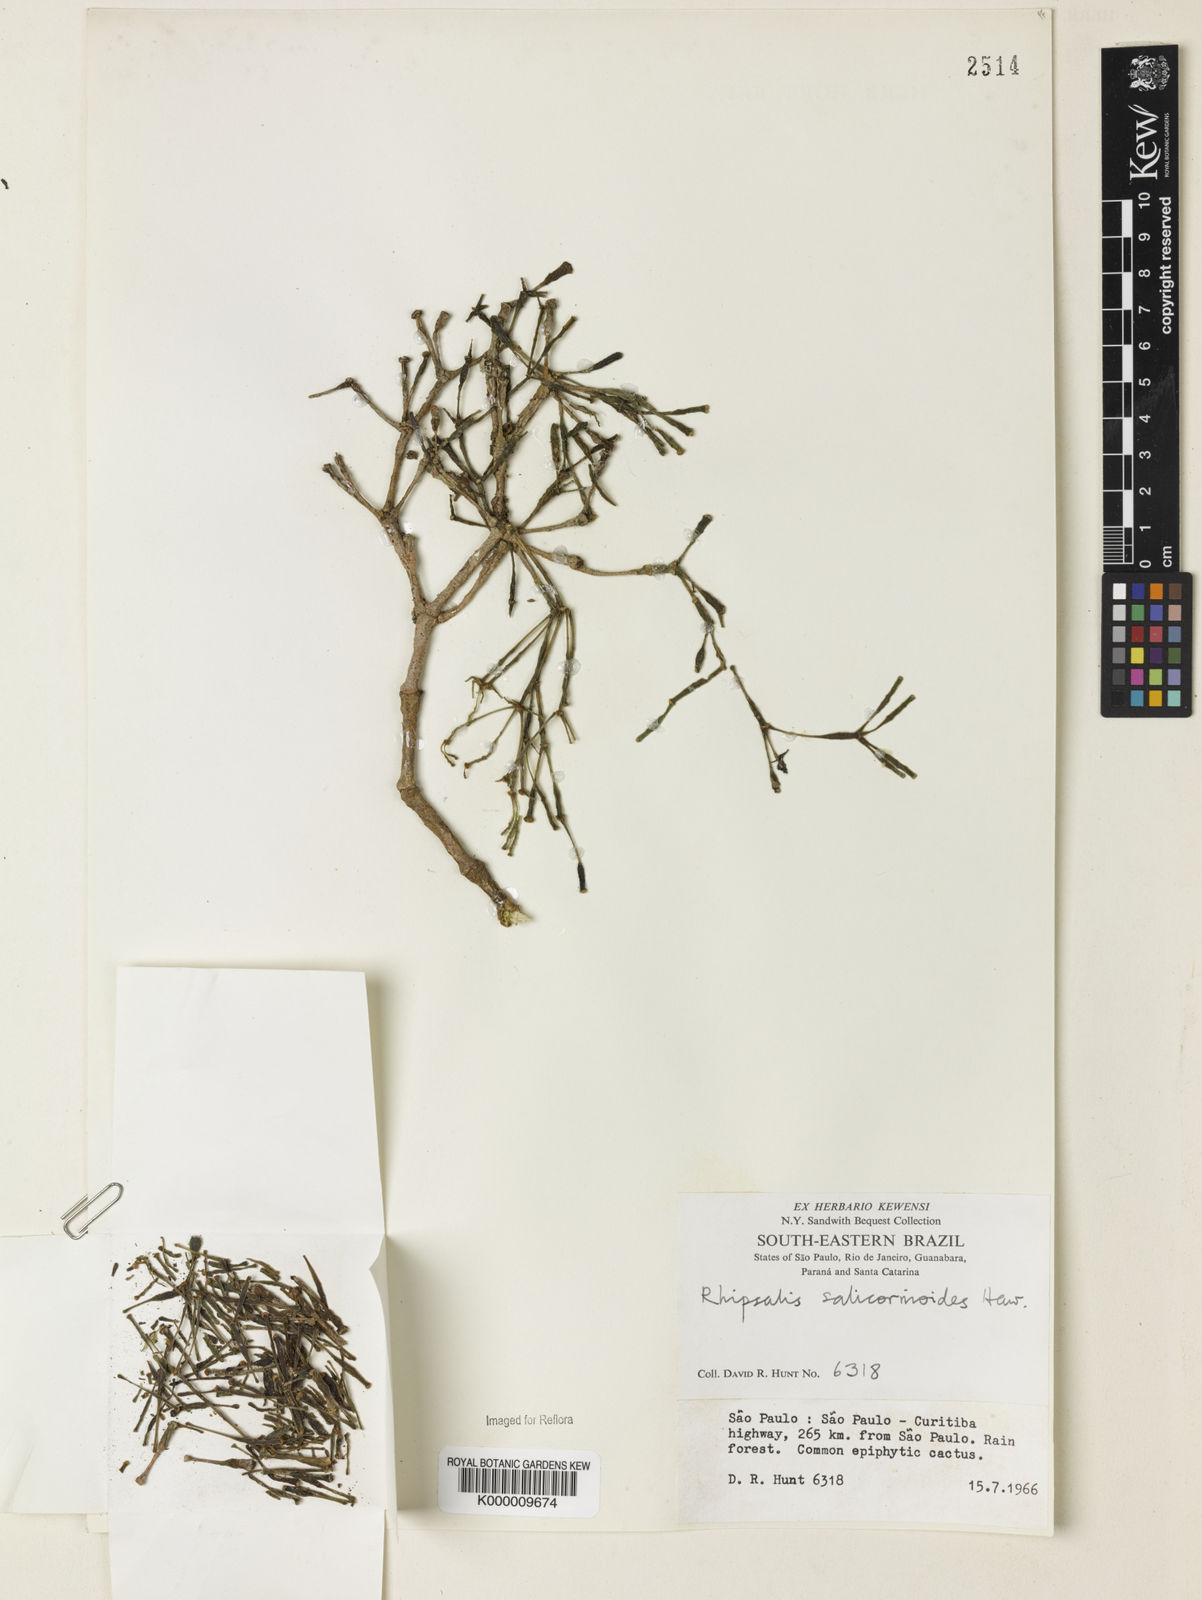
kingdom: Plantae
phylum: Tracheophyta
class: Magnoliopsida
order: Caryophyllales
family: Cactaceae
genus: Hatiora
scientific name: Hatiora
